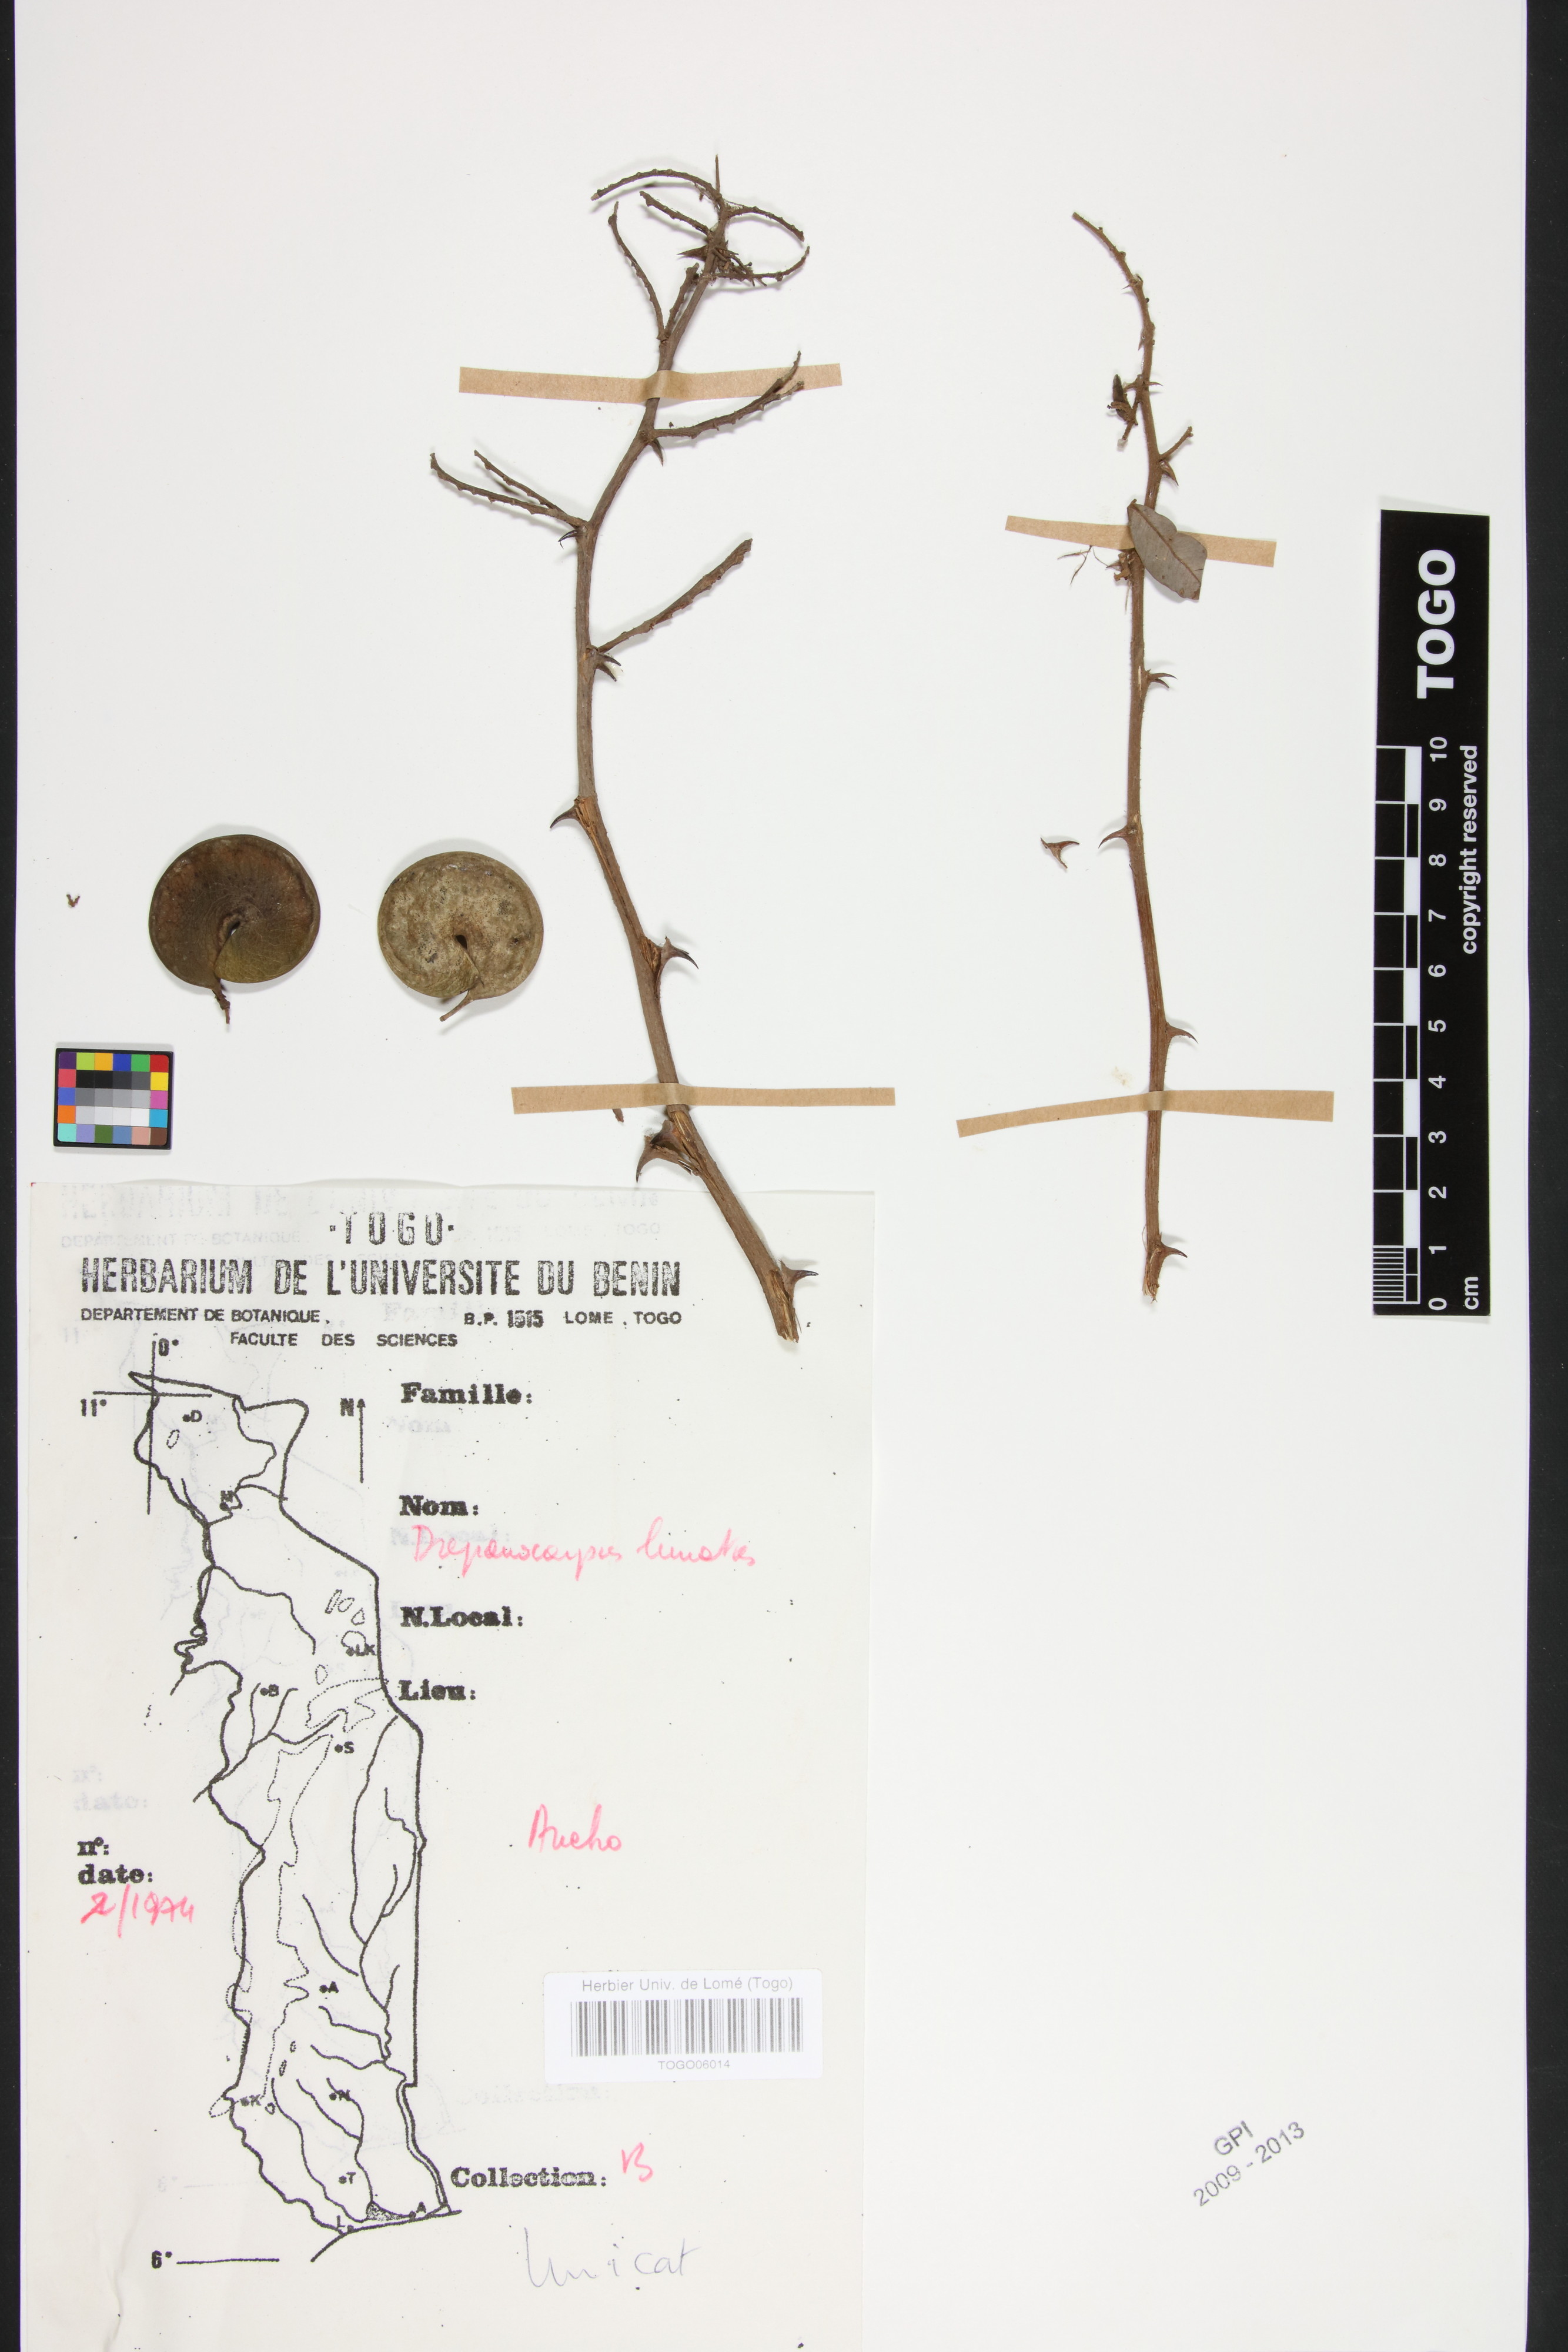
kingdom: Plantae
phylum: Tracheophyta
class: Magnoliopsida
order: Fabales
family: Fabaceae
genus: Machaerium
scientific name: Machaerium lunatum
